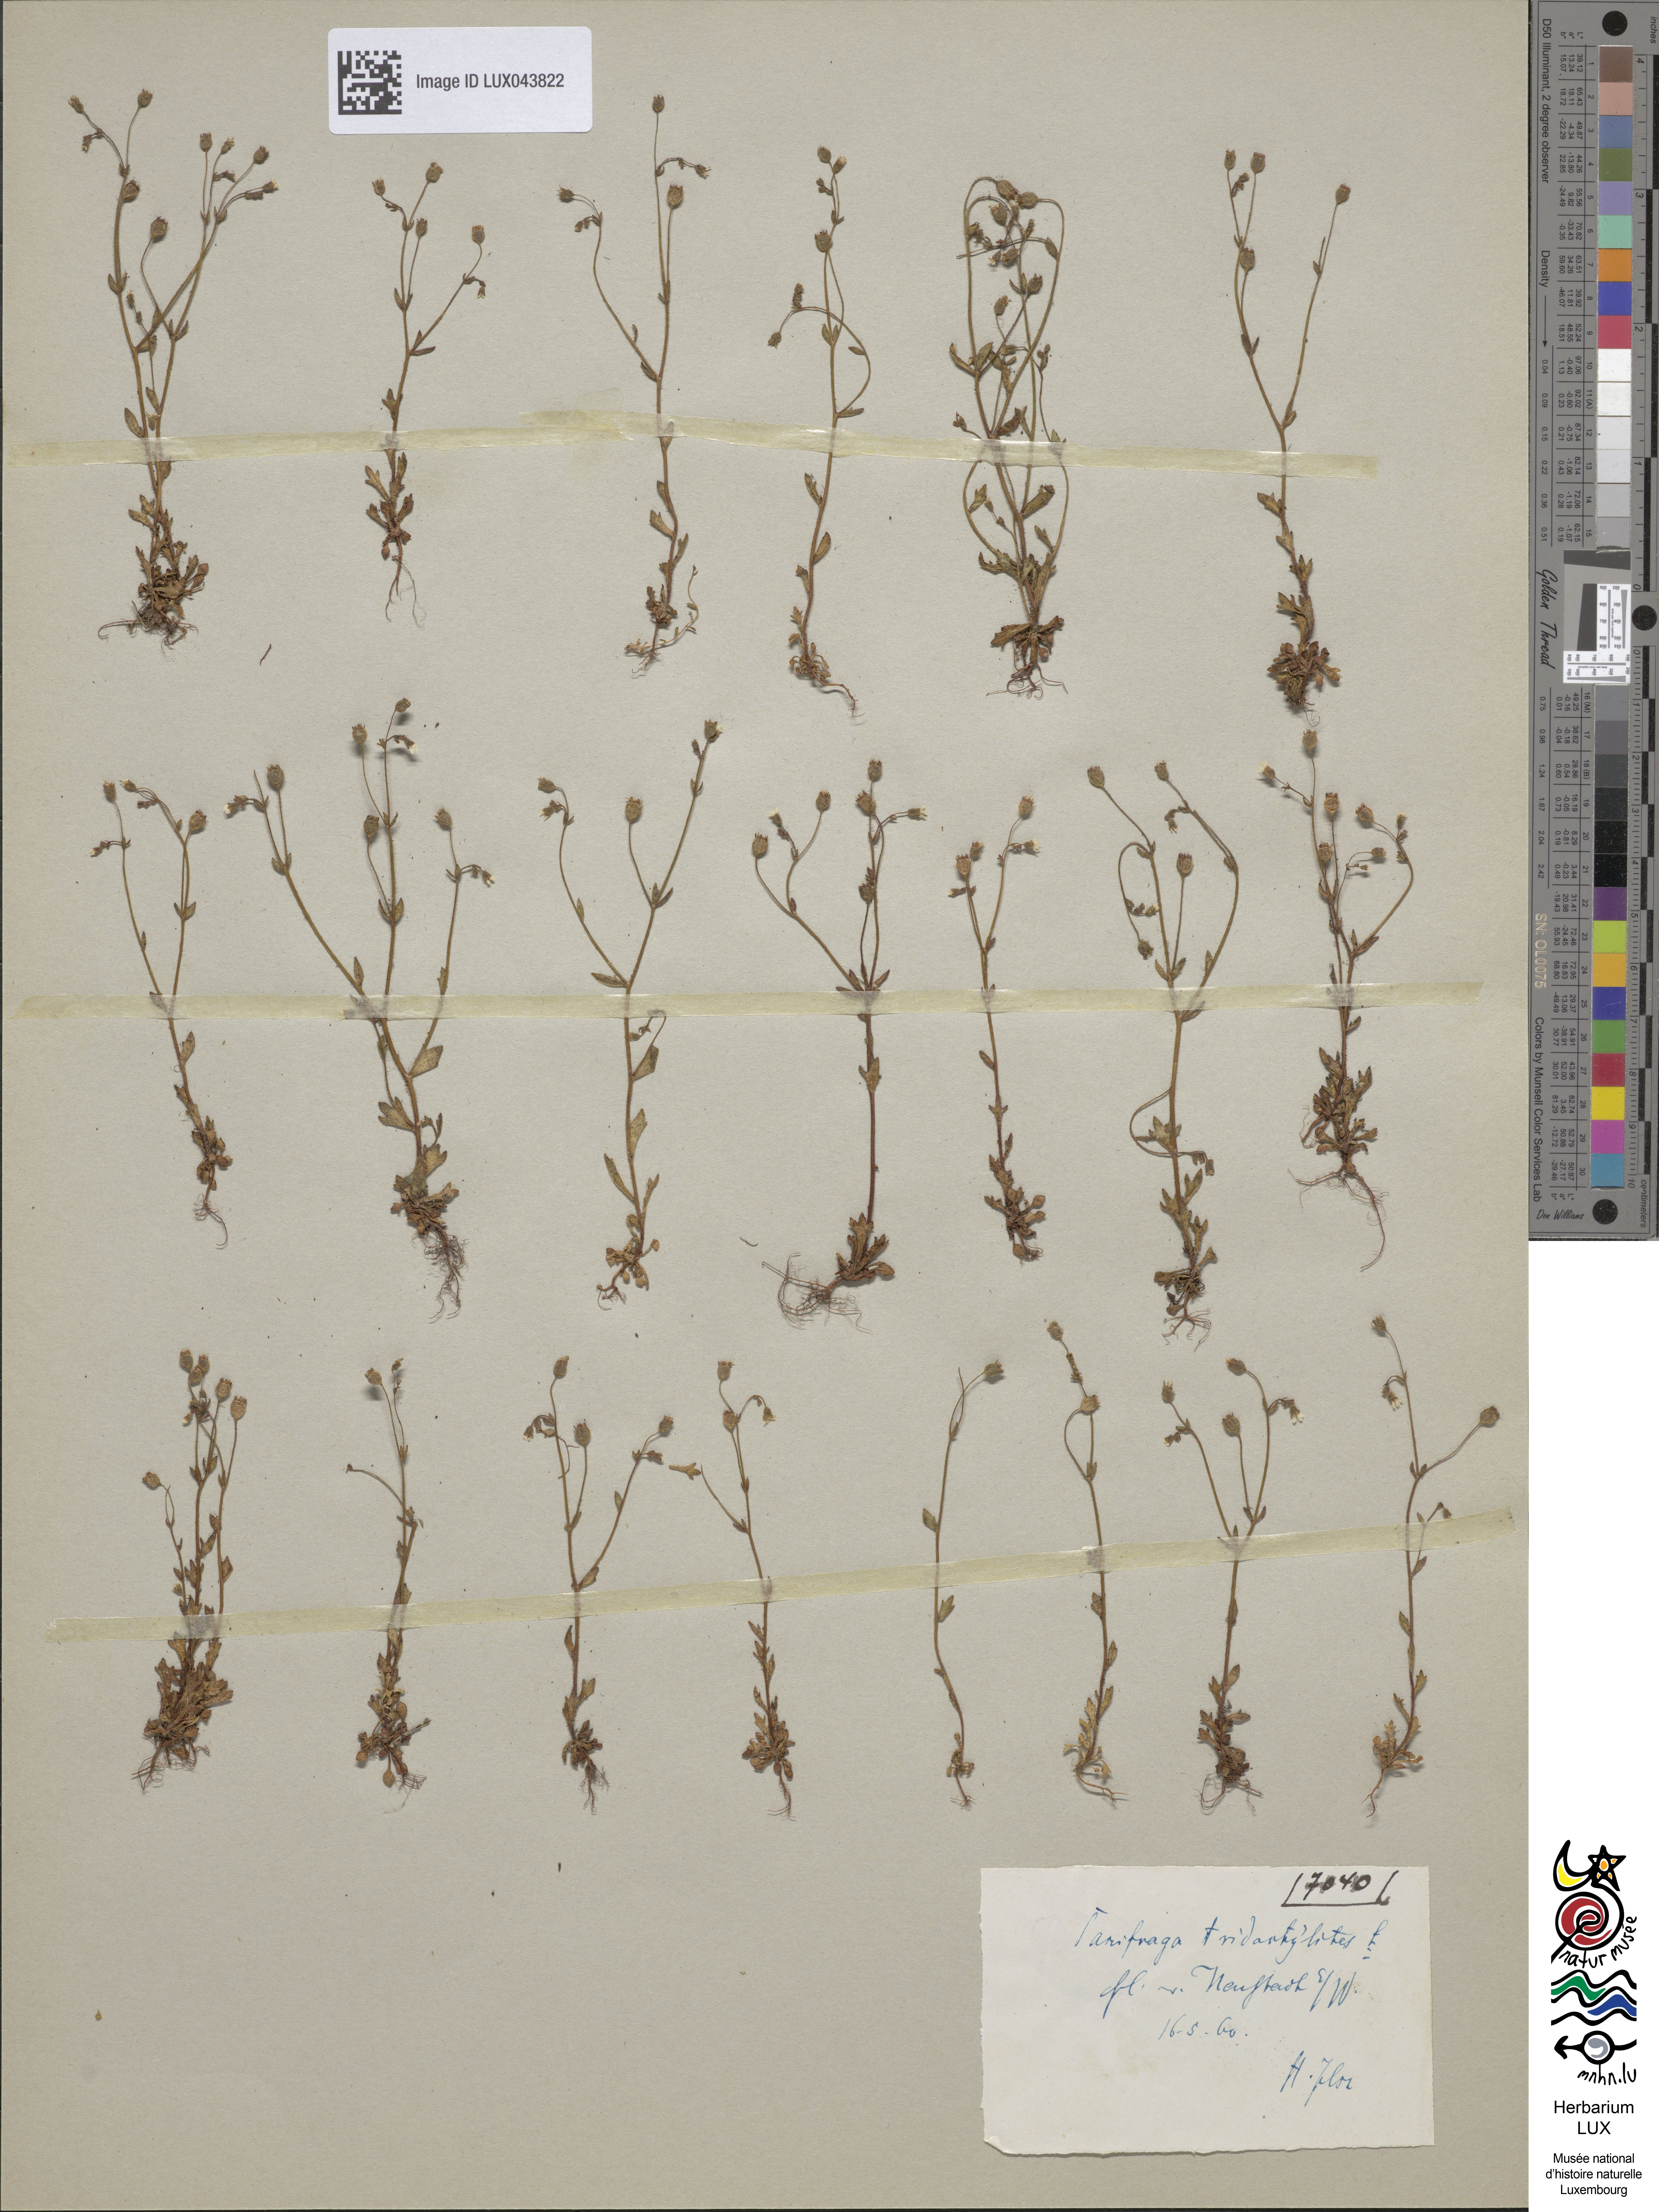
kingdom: Plantae
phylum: Tracheophyta
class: Magnoliopsida
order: Saxifragales
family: Saxifragaceae
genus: Saxifraga
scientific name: Saxifraga tridactylites
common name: Rue-leaved saxifrage
